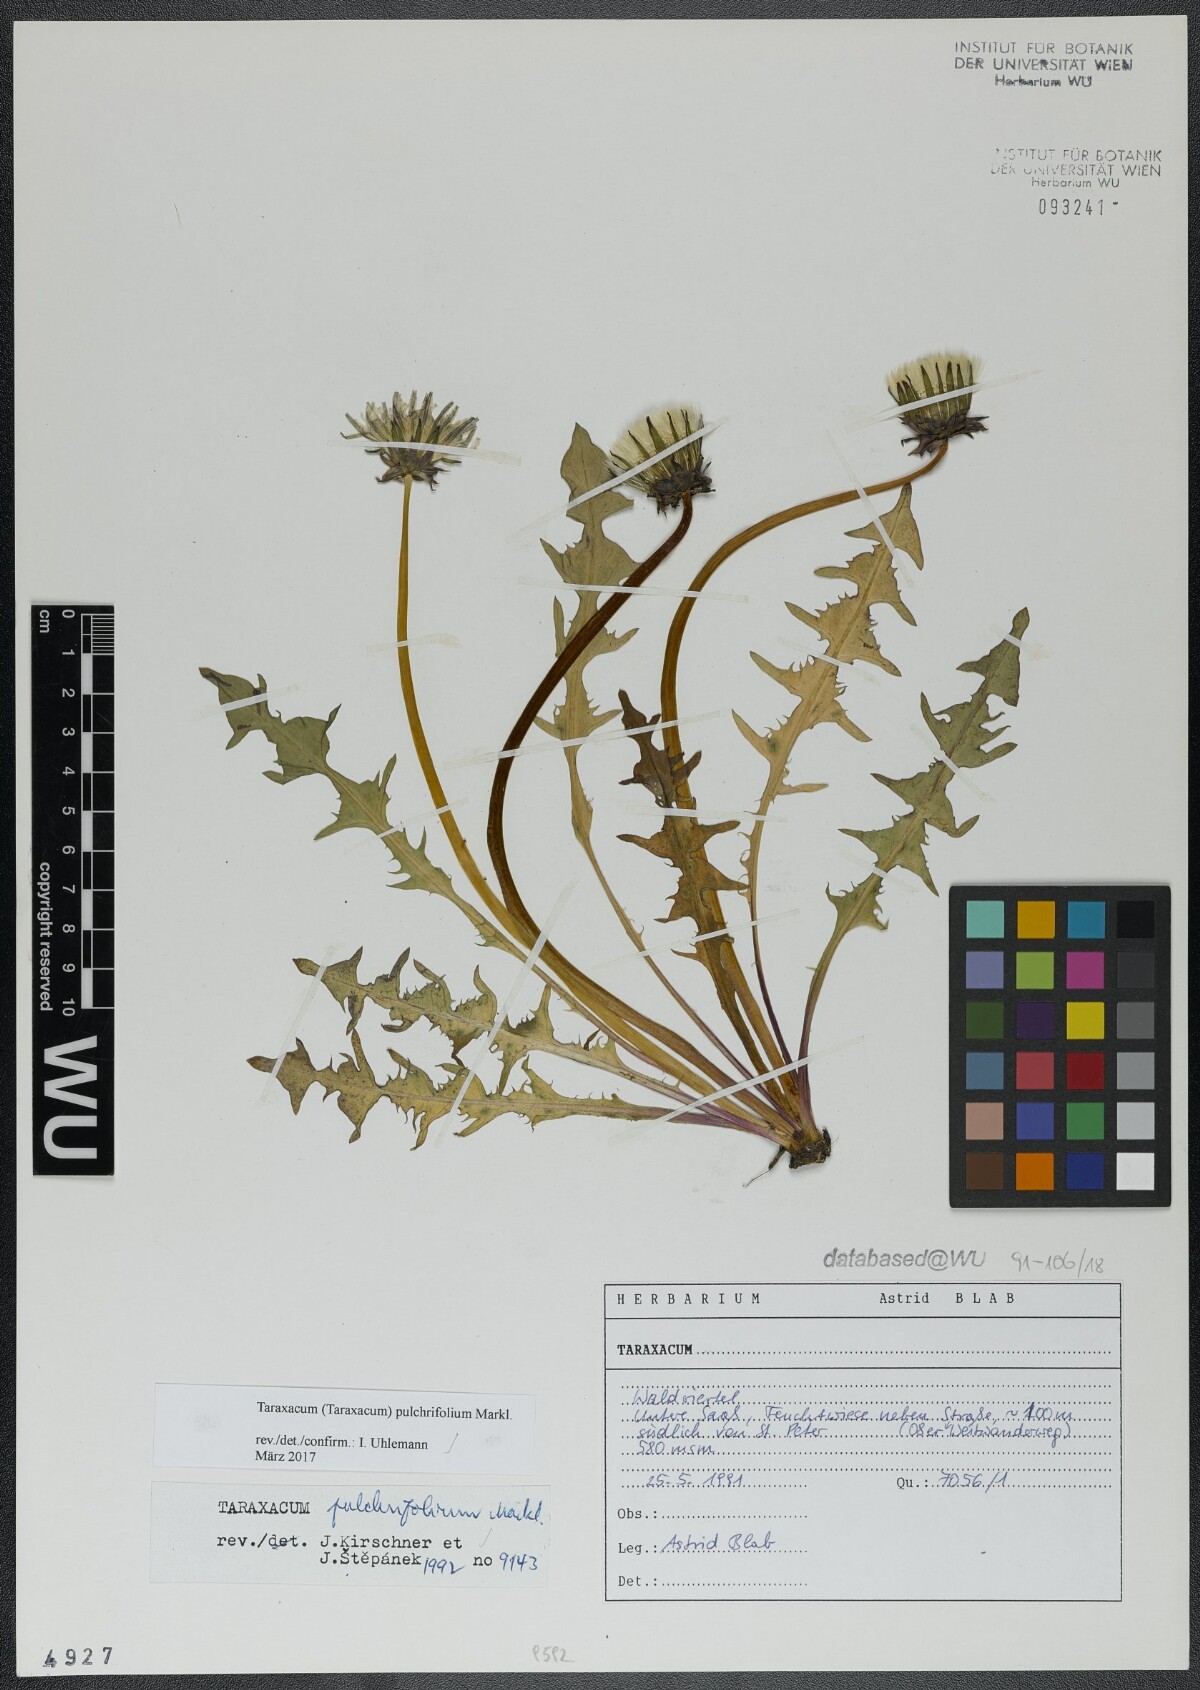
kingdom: Plantae
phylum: Tracheophyta
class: Magnoliopsida
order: Asterales
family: Asteraceae
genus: Taraxacum
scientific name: Taraxacum pulchrifolium
